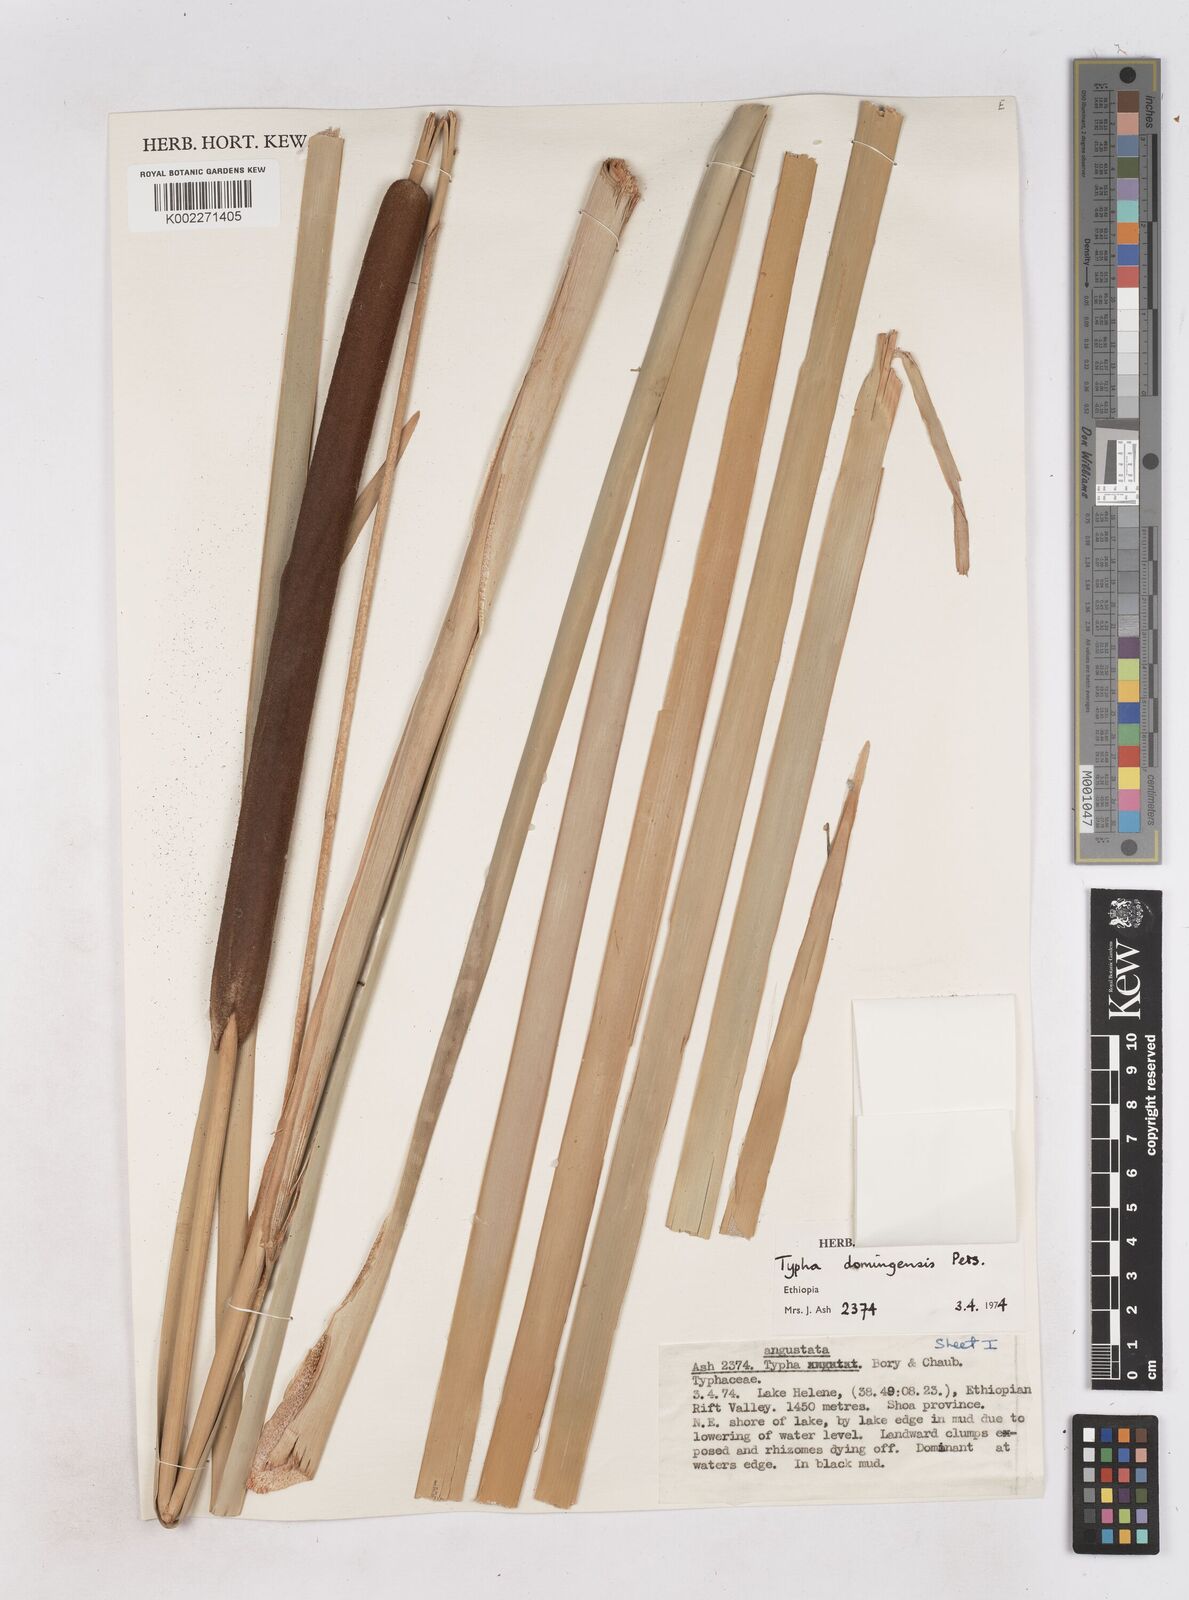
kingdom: Plantae
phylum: Tracheophyta
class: Liliopsida
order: Poales
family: Typhaceae
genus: Typha
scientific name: Typha domingensis
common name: Southern cattail
